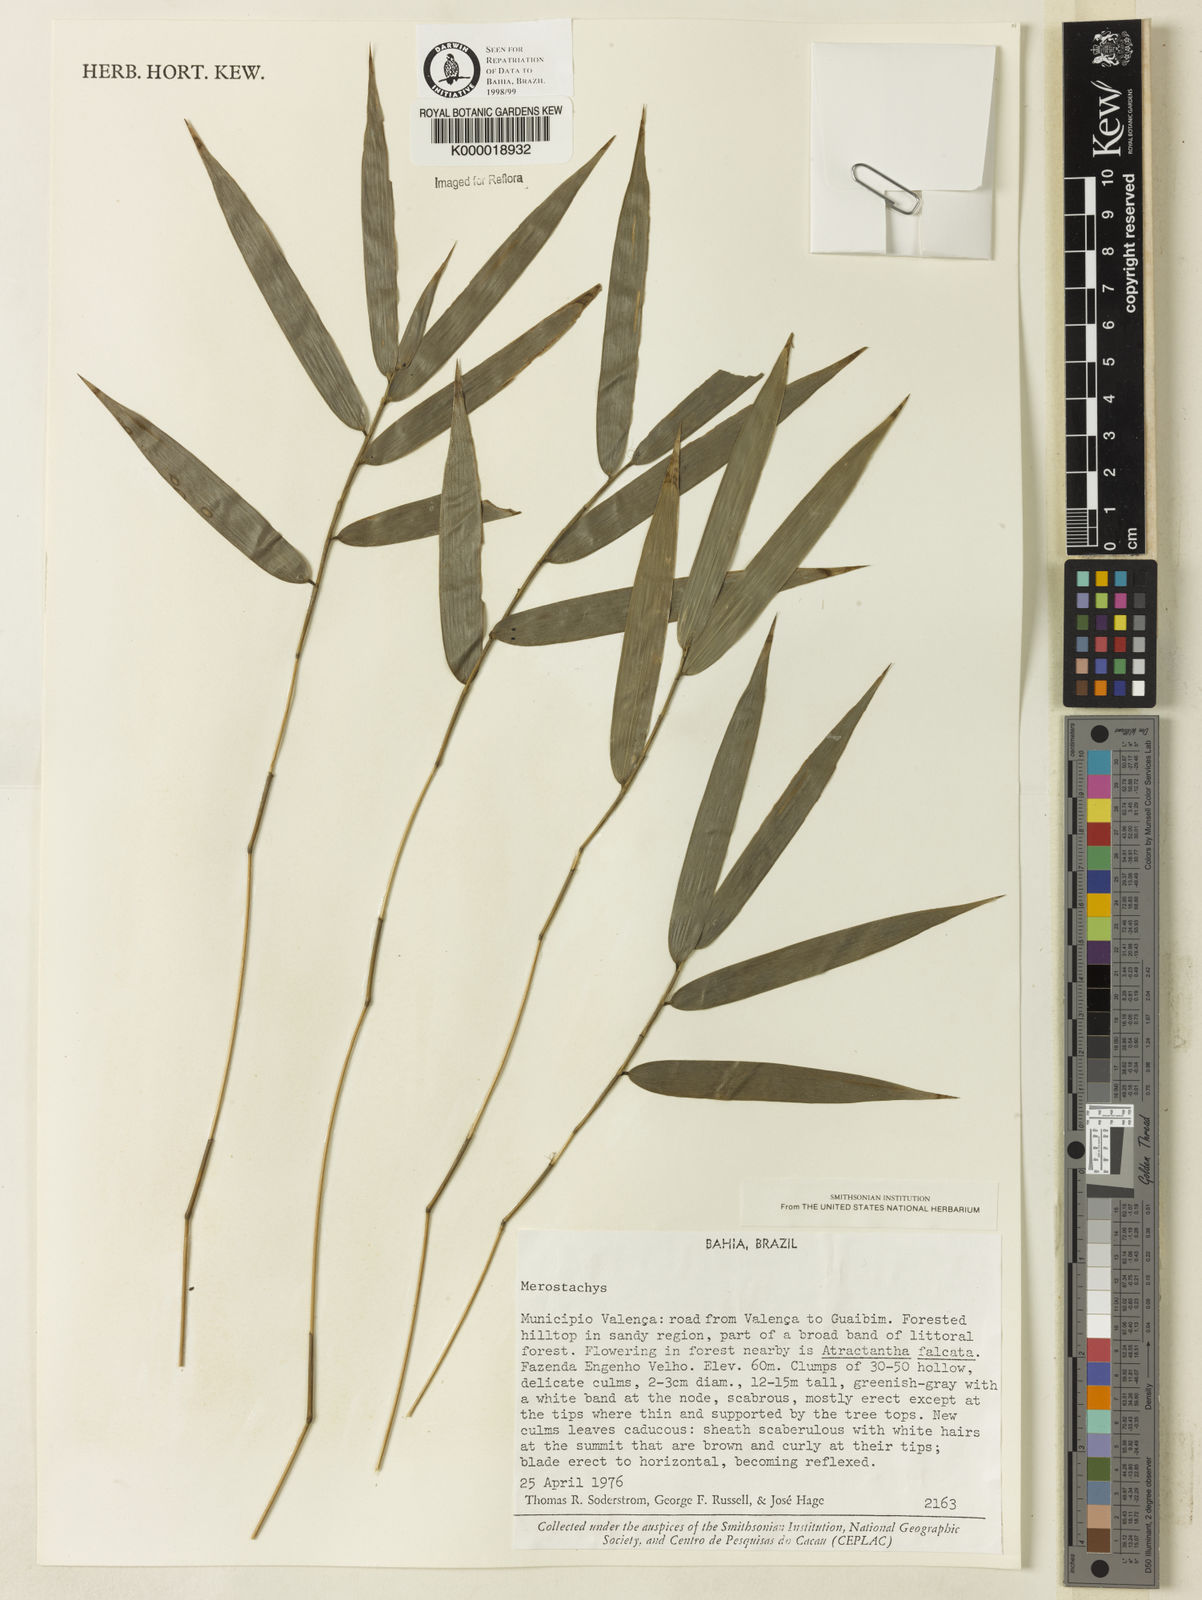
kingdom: Plantae
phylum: Tracheophyta
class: Liliopsida
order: Poales
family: Poaceae
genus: Merostachys
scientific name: Merostachys
